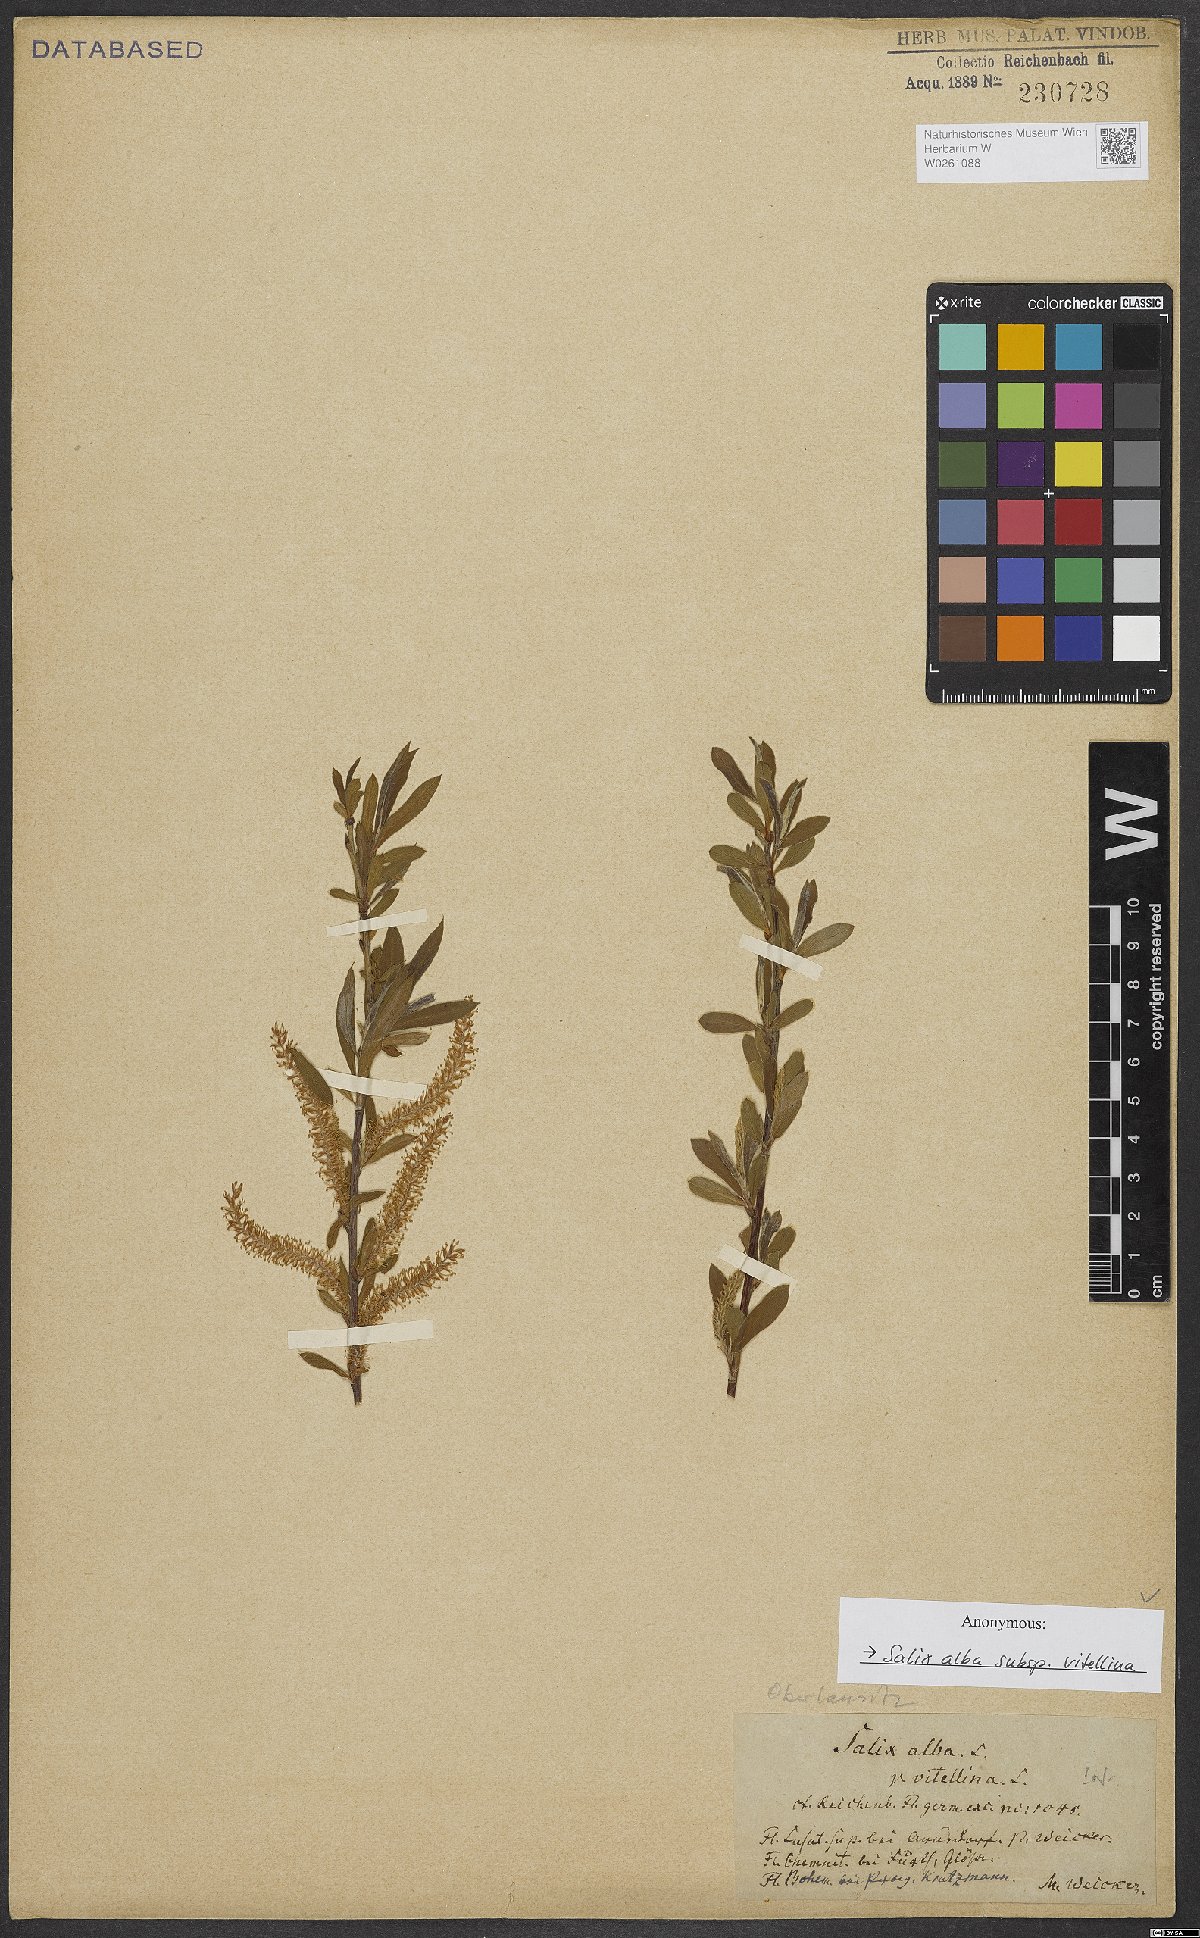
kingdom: Plantae
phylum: Tracheophyta
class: Magnoliopsida
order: Malpighiales
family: Salicaceae
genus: Salix
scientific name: Salix alba
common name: White willow
